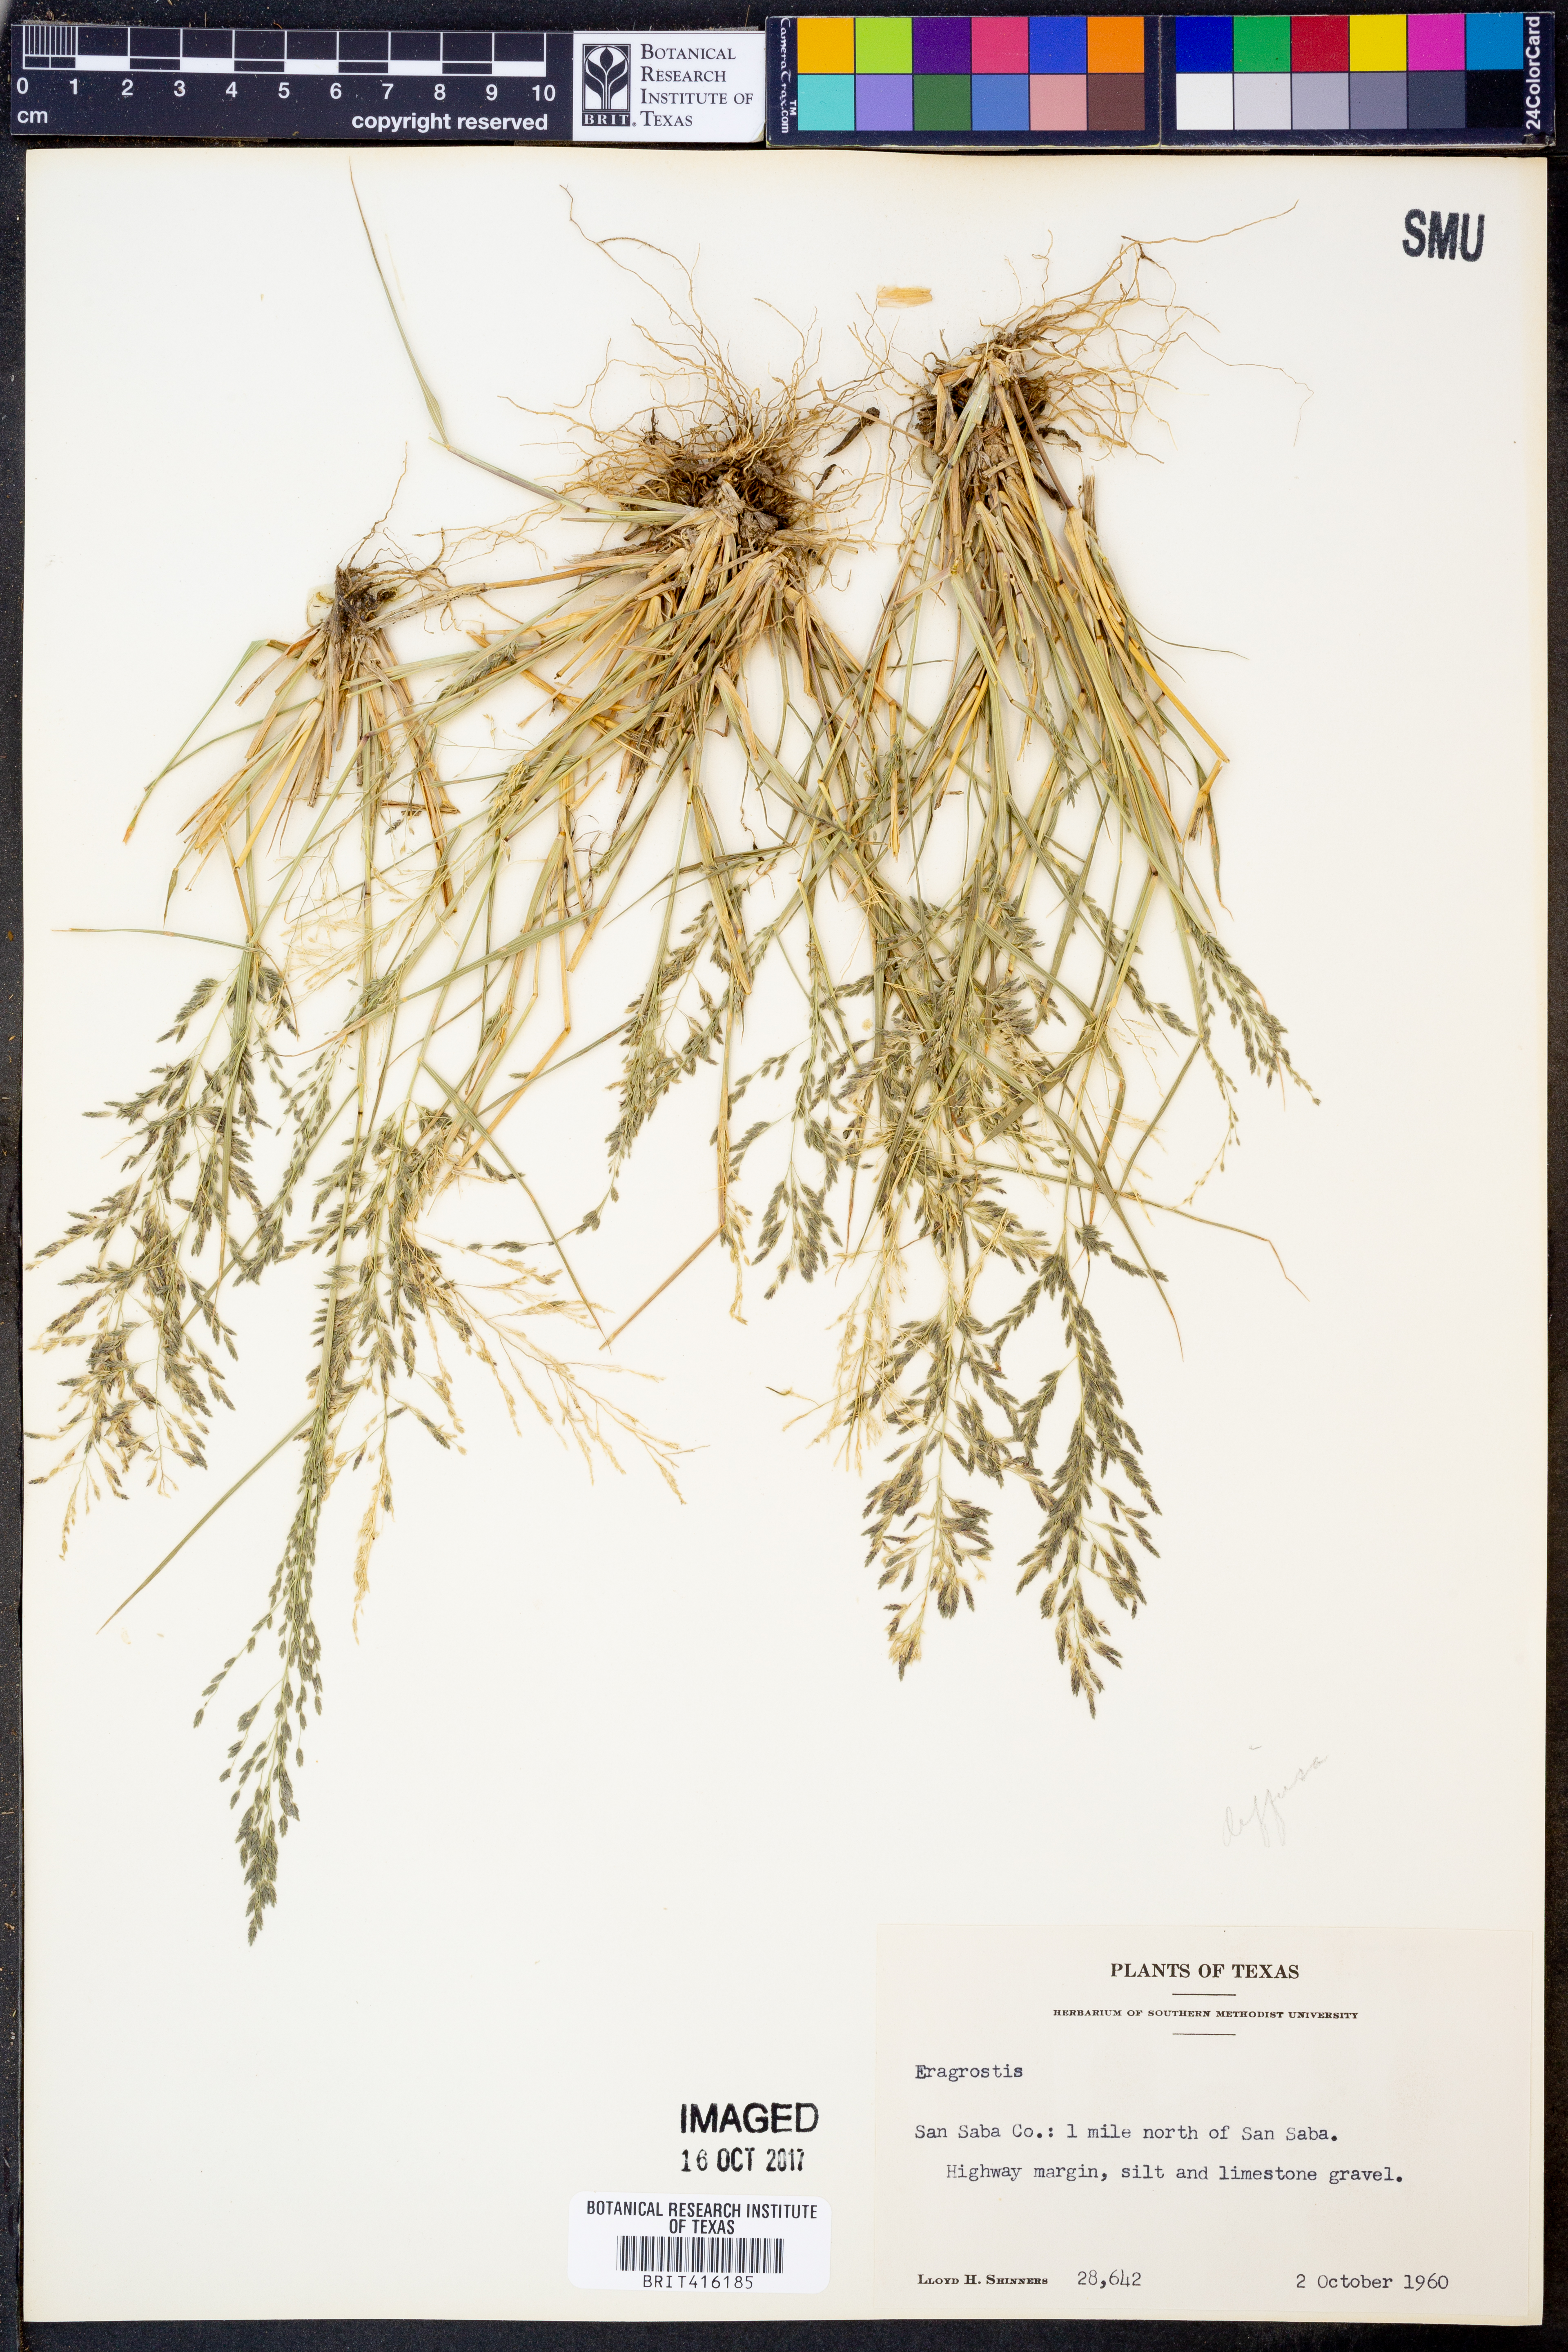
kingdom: Plantae
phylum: Tracheophyta
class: Liliopsida
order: Poales
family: Poaceae
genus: Eragrostis
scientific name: Eragrostis
